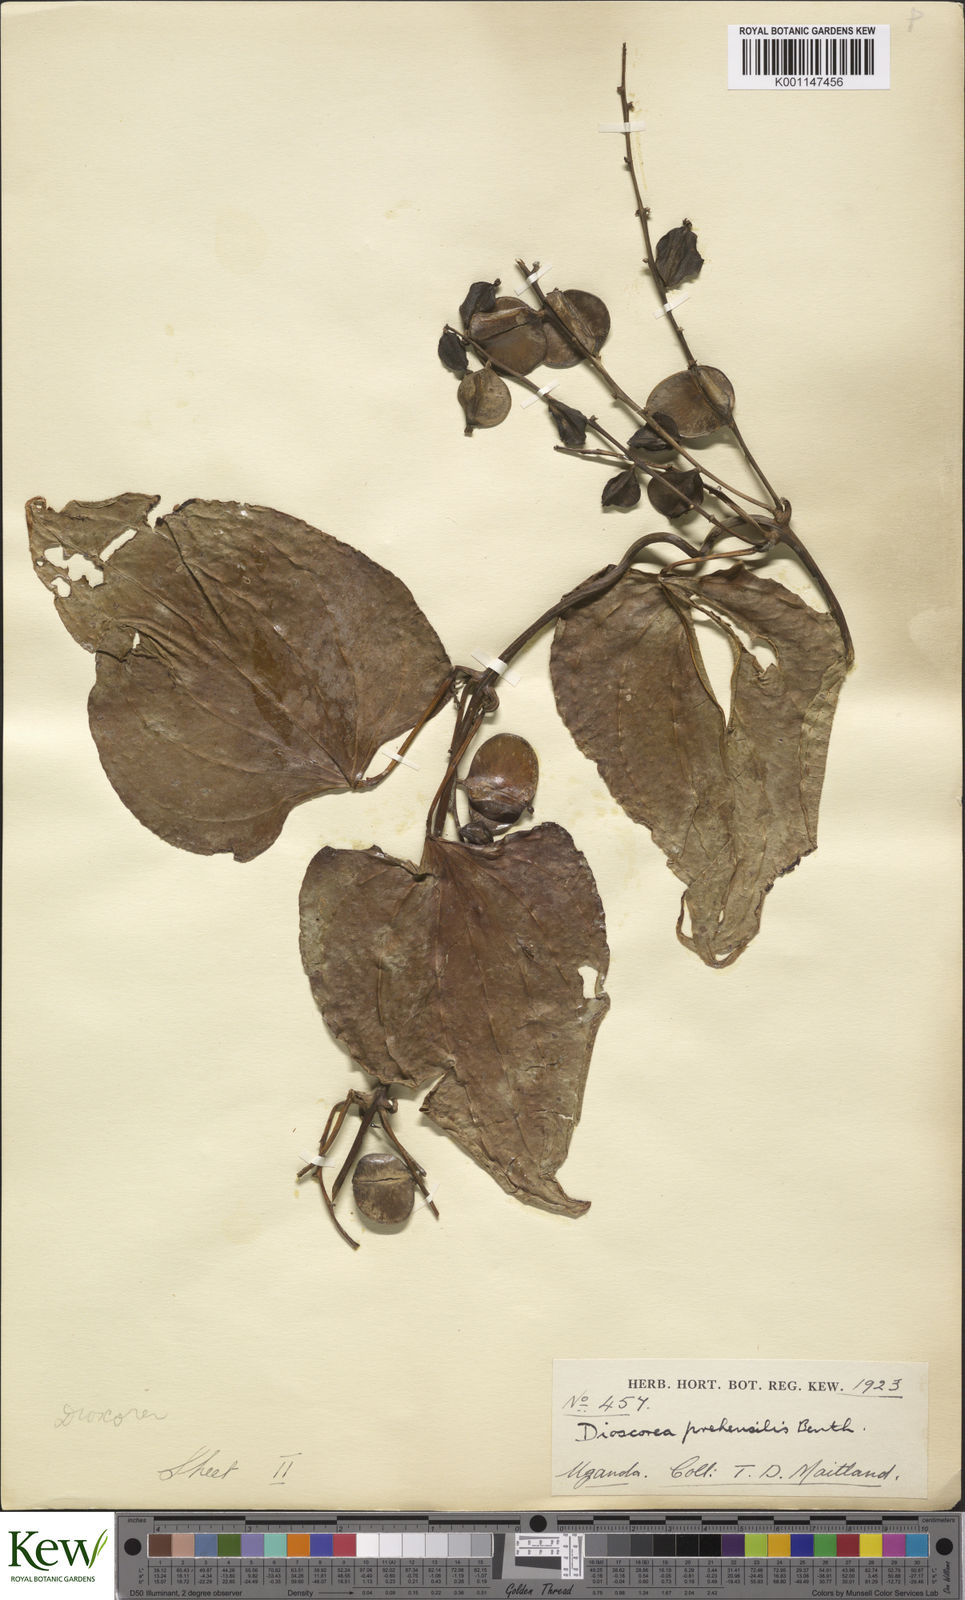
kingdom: Plantae
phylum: Tracheophyta
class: Liliopsida
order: Dioscoreales
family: Dioscoreaceae
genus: Dioscorea
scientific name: Dioscorea
